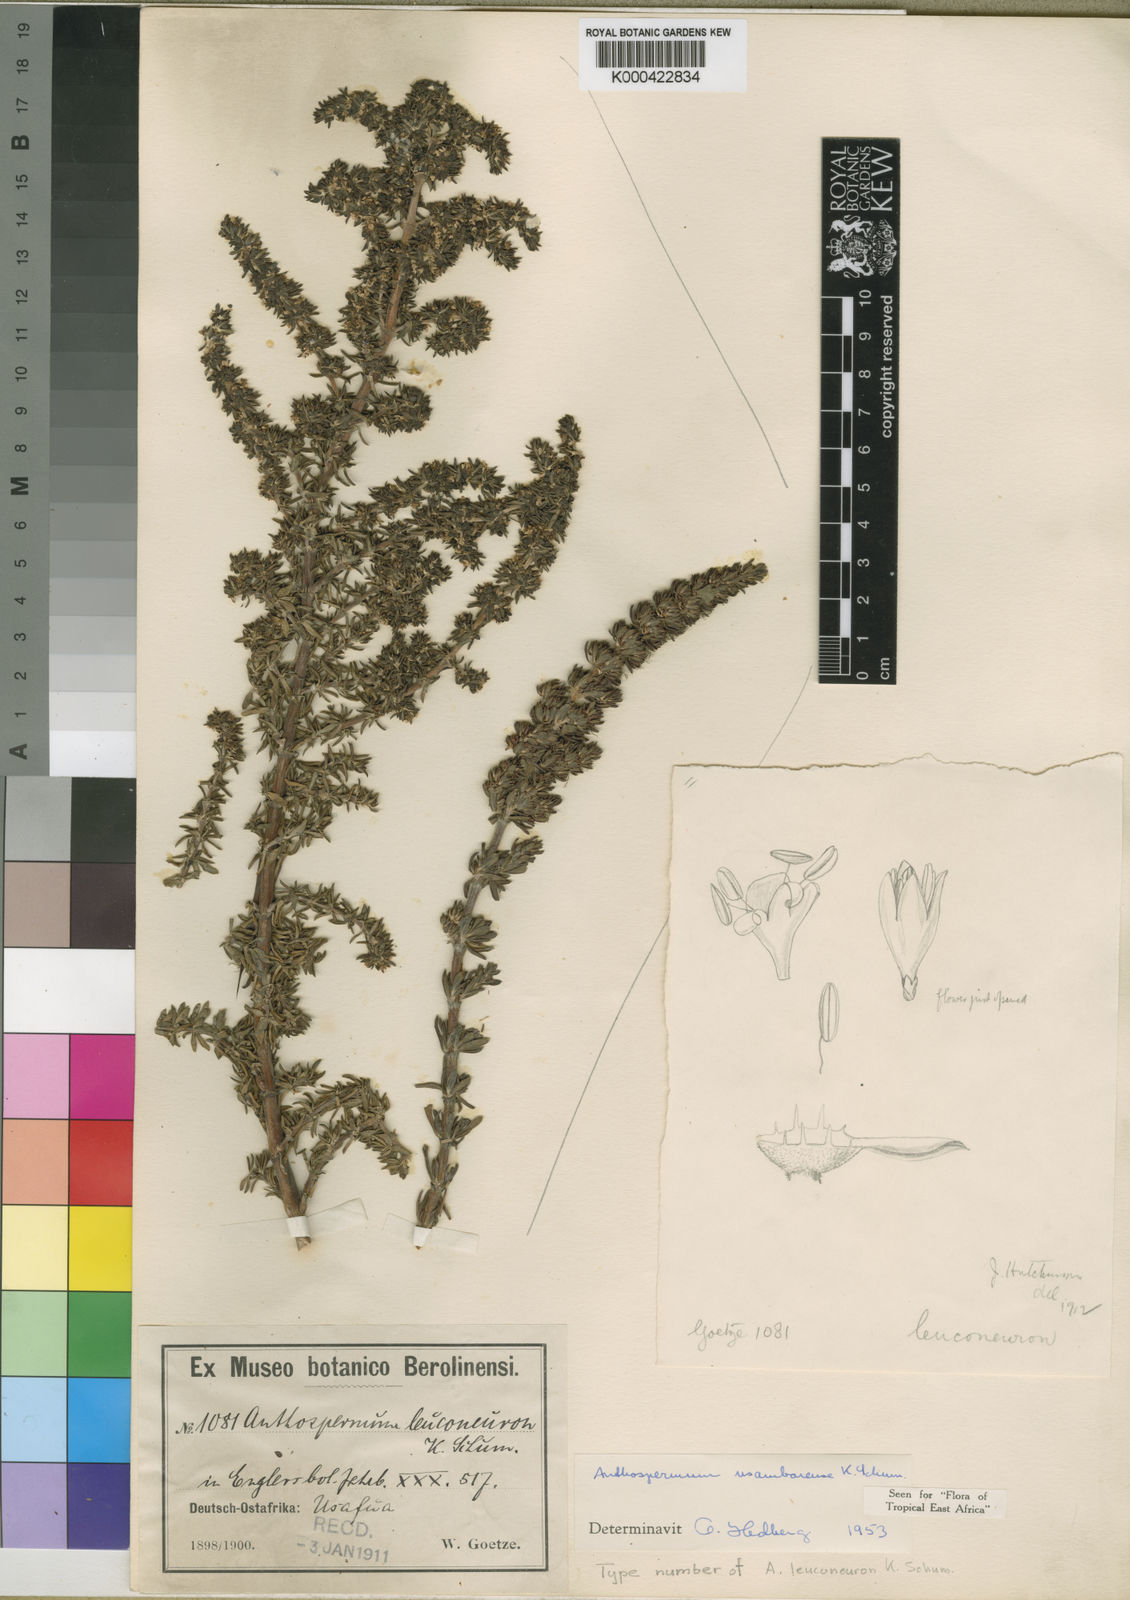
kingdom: Plantae
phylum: Tracheophyta
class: Magnoliopsida
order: Gentianales
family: Rubiaceae
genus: Anthospermum
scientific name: Anthospermum usambarense
